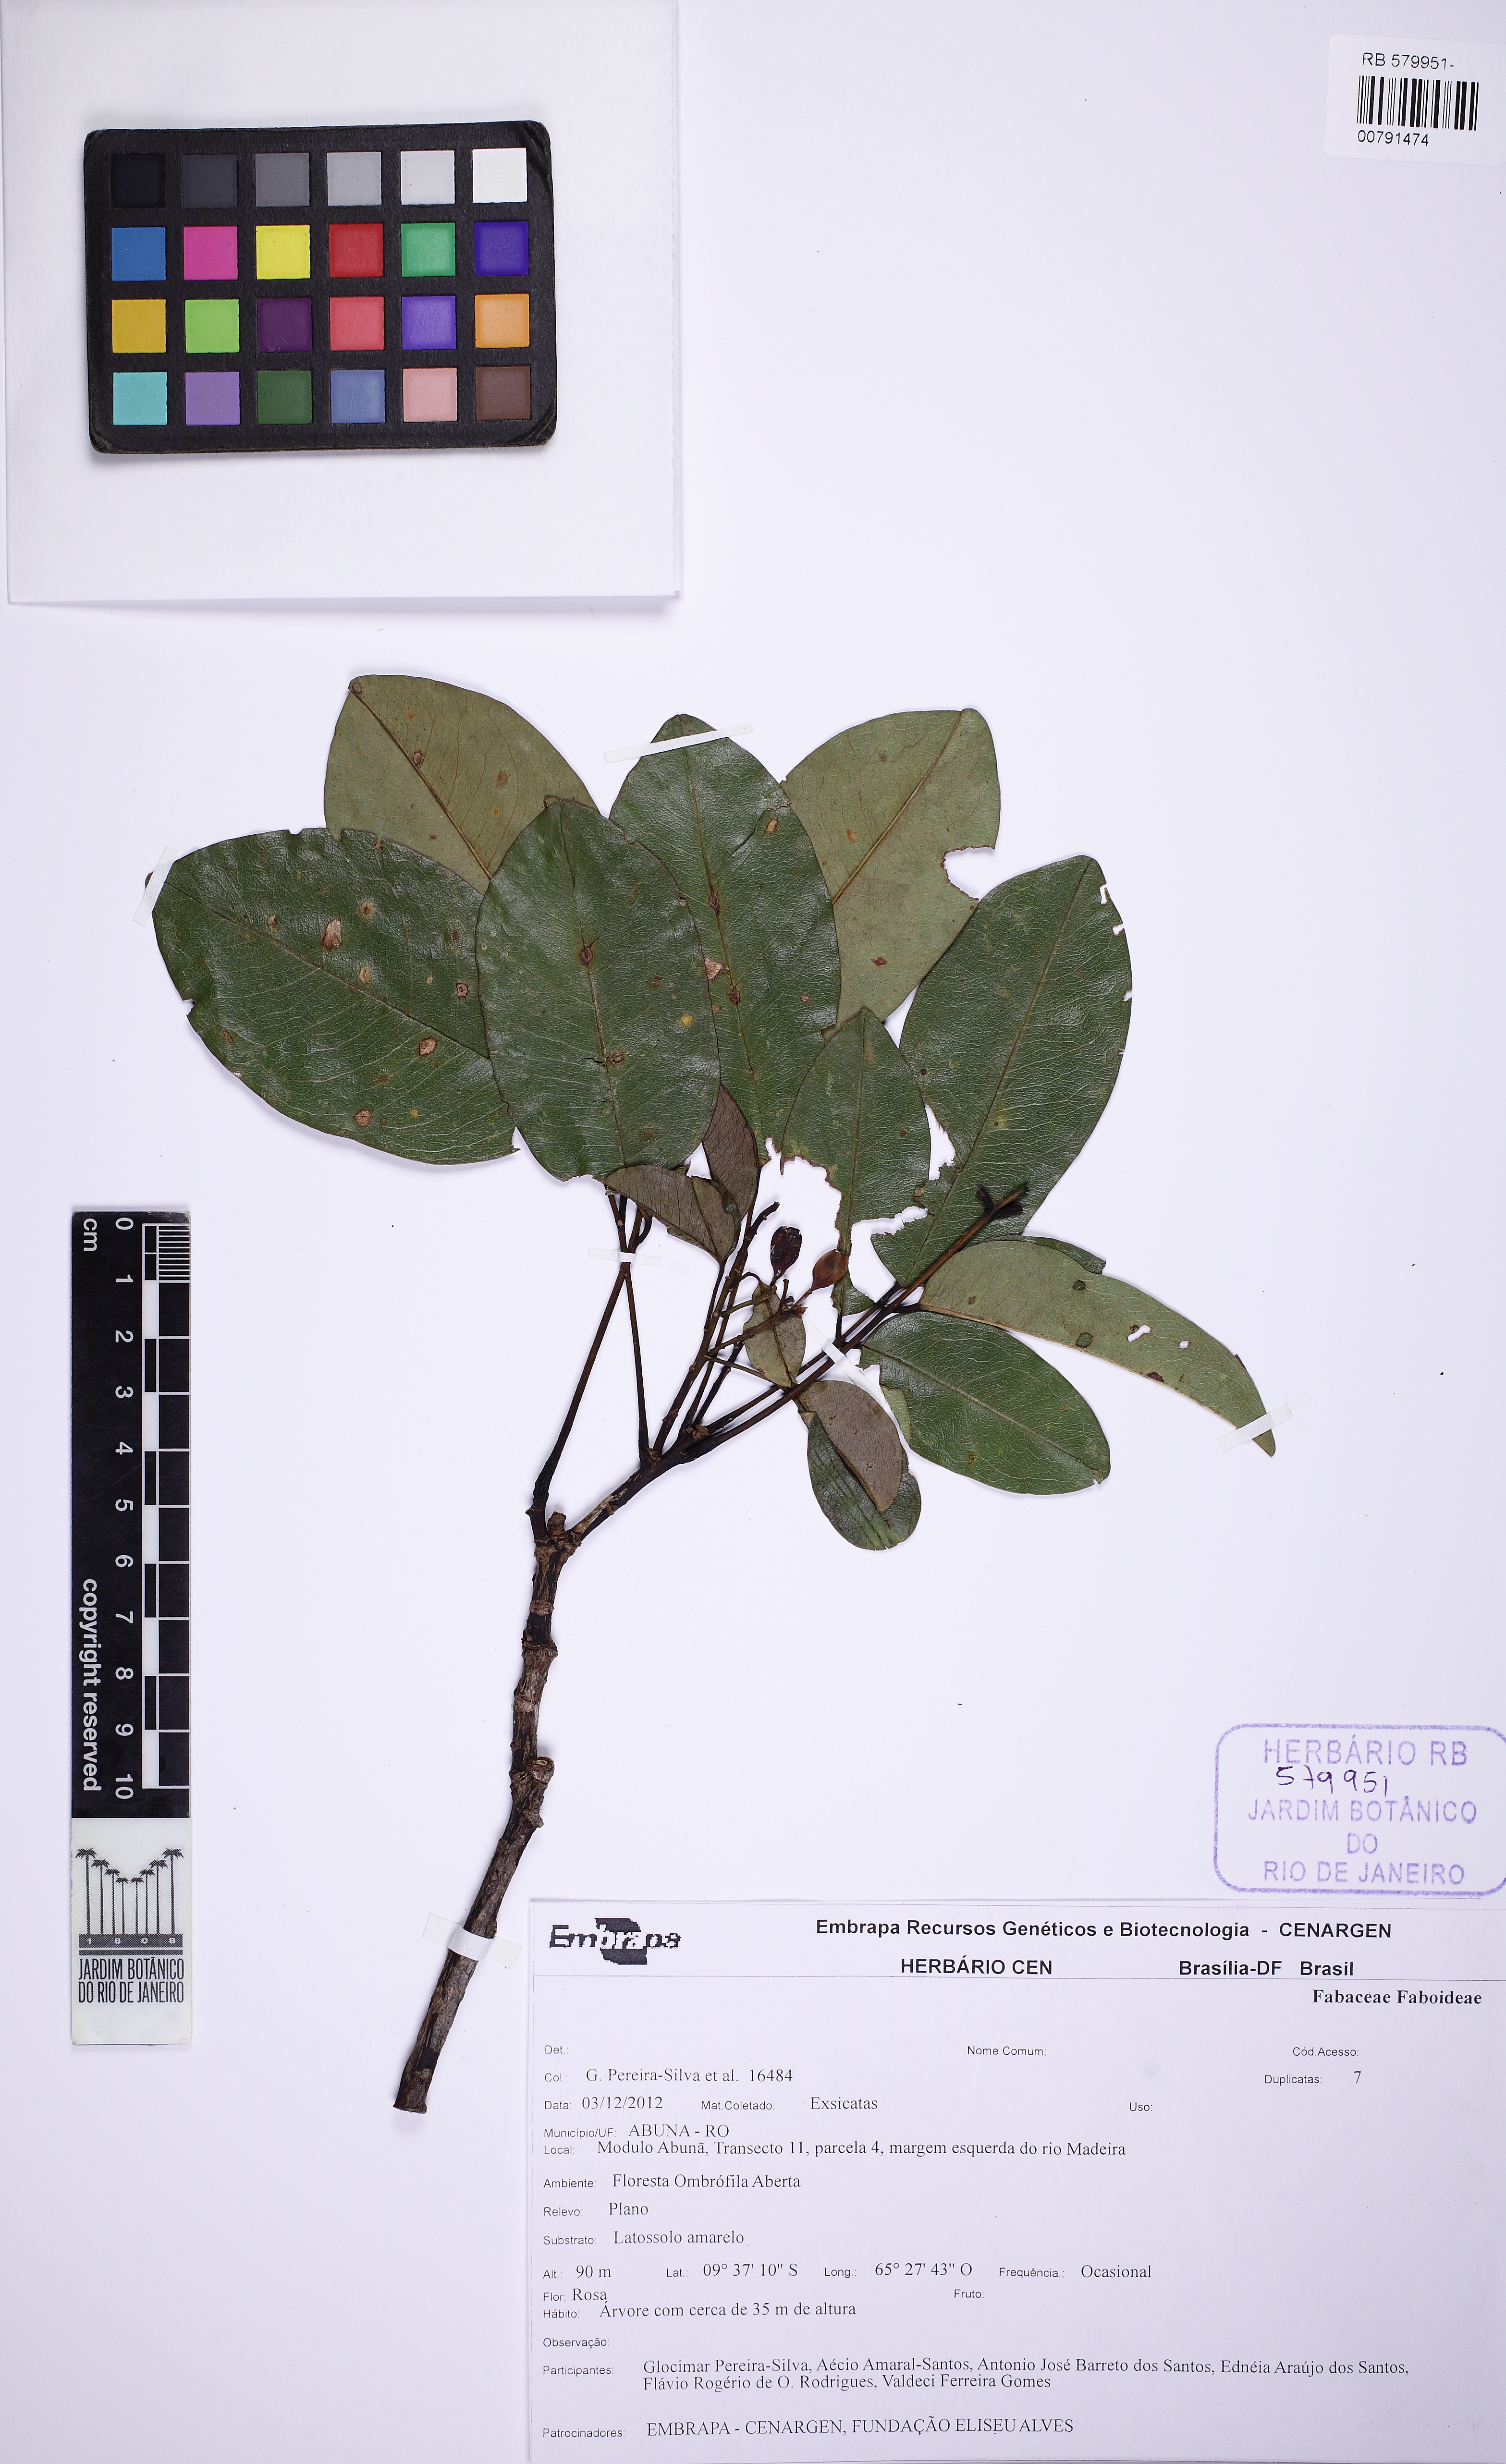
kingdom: Plantae
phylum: Tracheophyta
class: Magnoliopsida
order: Fabales
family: Fabaceae
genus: Diplotropis
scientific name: Diplotropis
